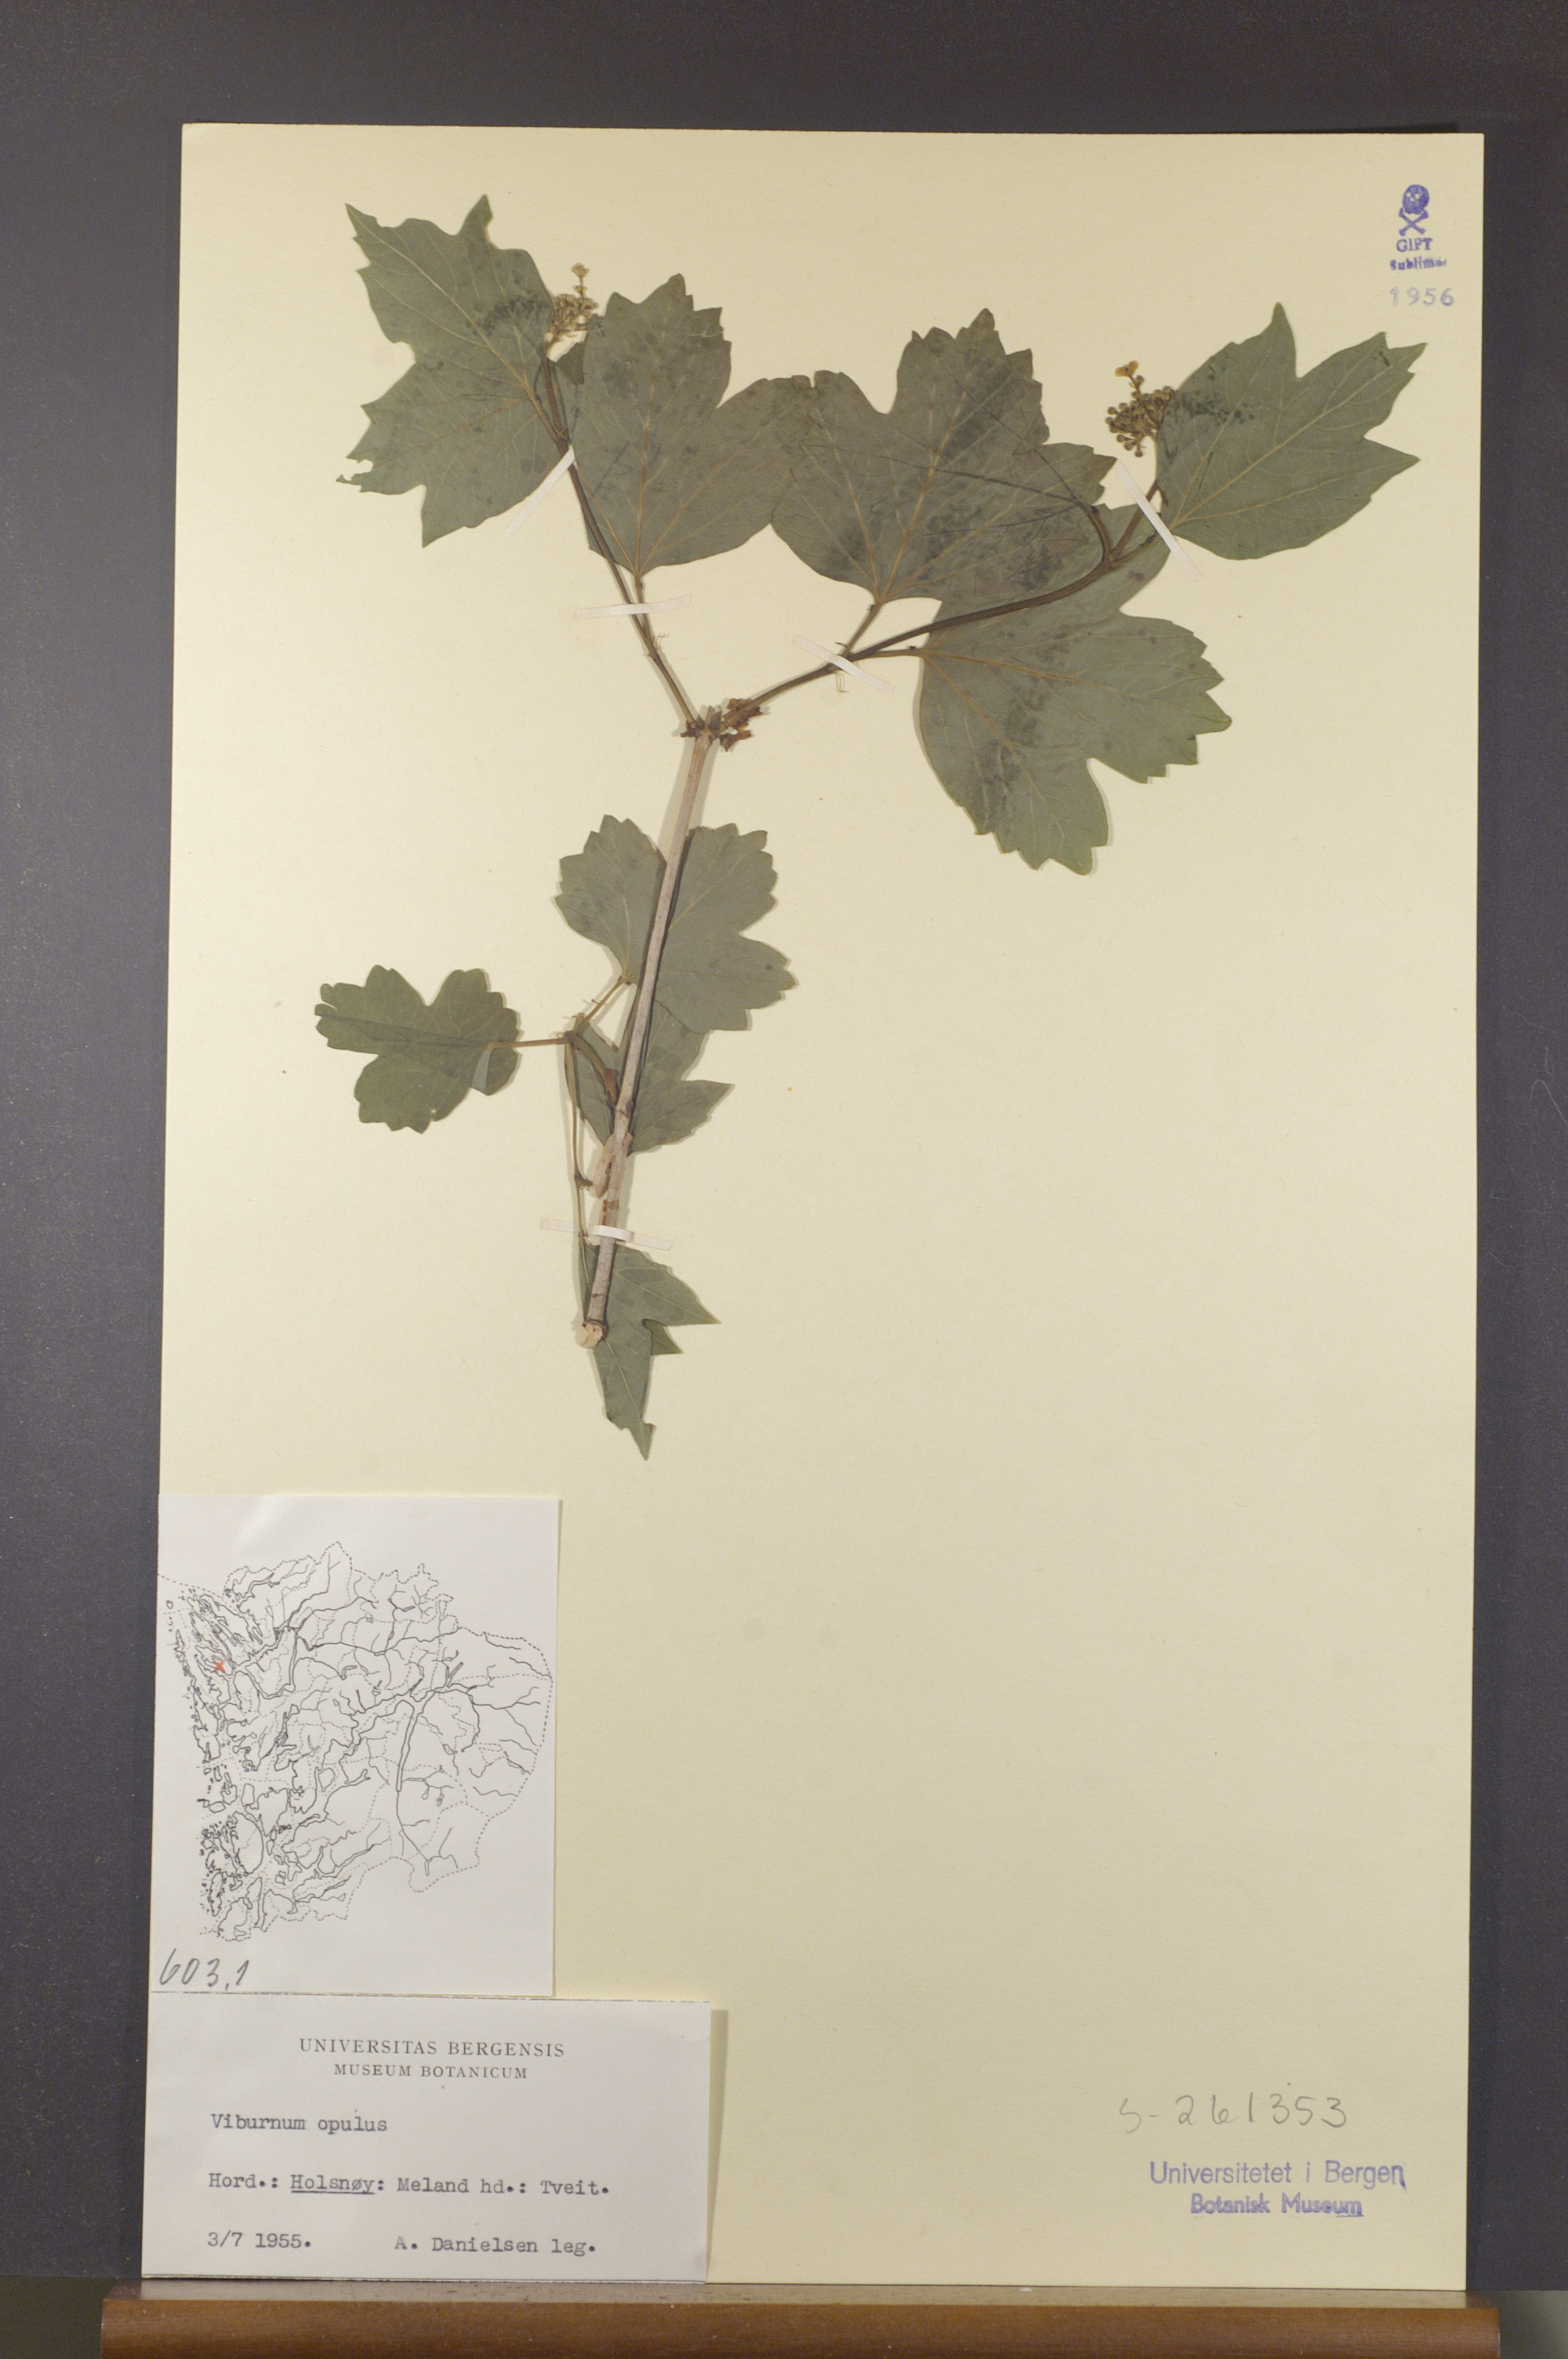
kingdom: Plantae
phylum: Tracheophyta
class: Magnoliopsida
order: Dipsacales
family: Viburnaceae
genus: Viburnum
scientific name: Viburnum opulus
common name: Guelder-rose
